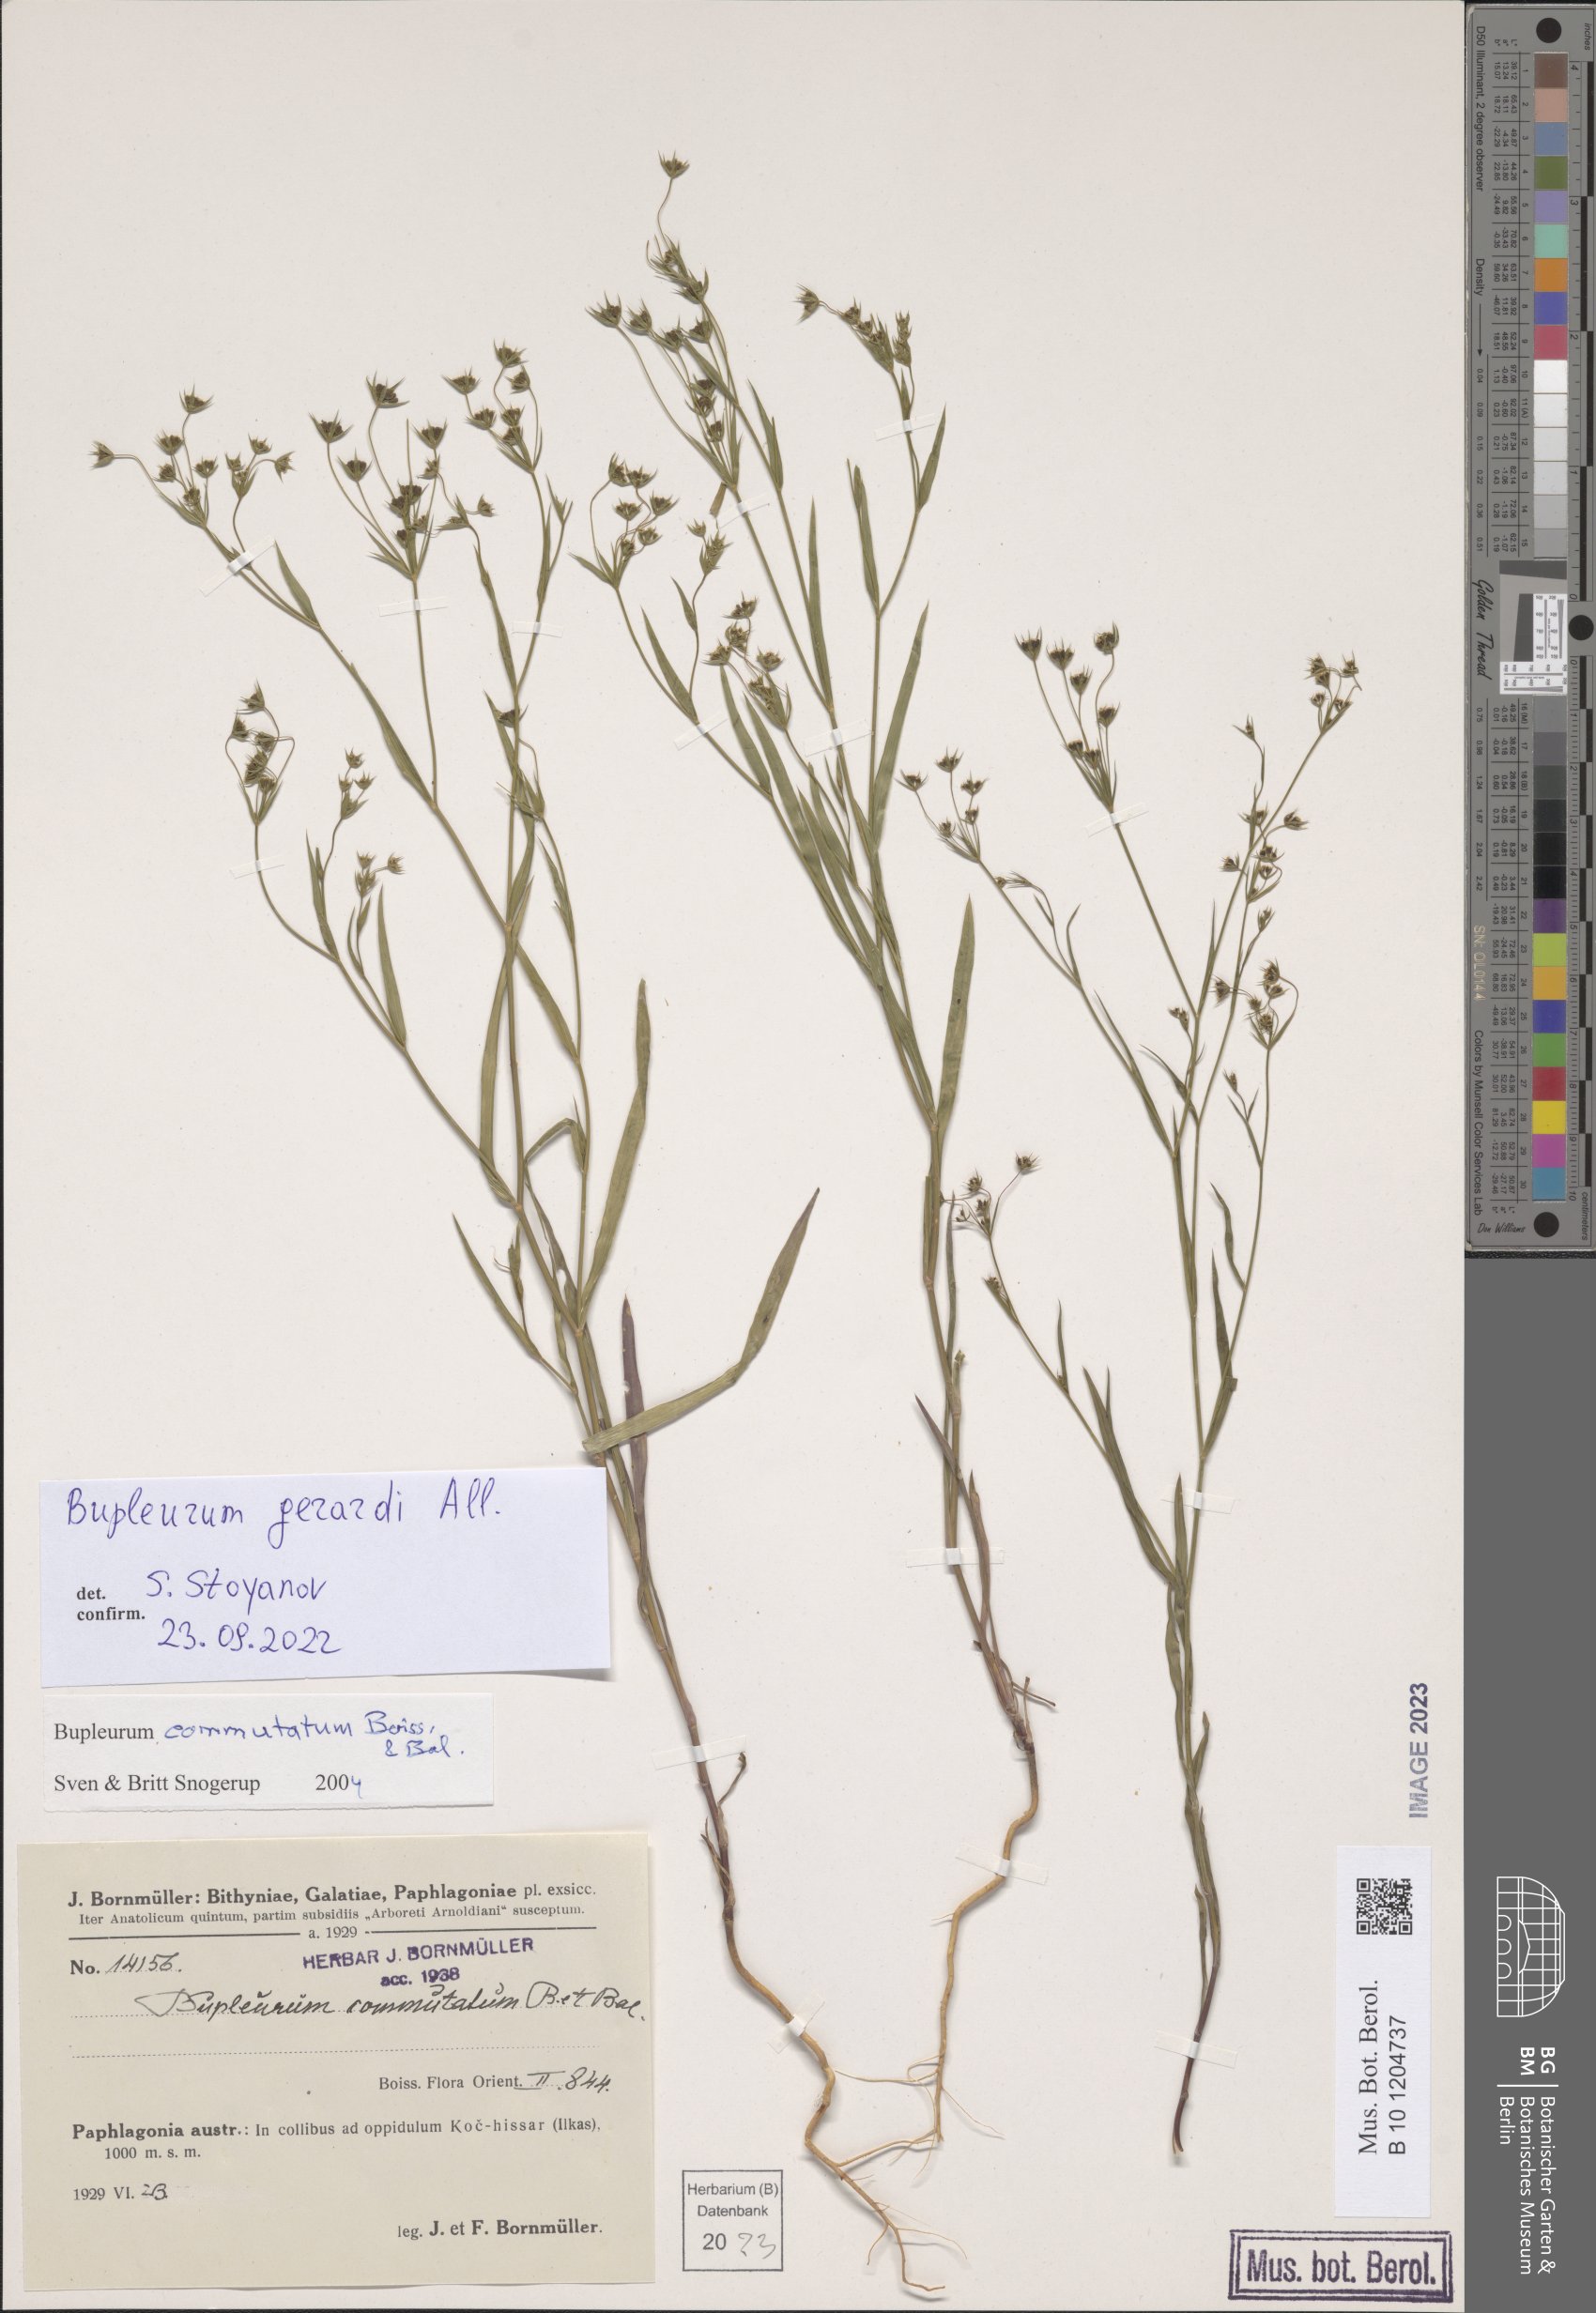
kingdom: Plantae
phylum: Tracheophyta
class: Magnoliopsida
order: Apiales
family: Apiaceae
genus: Bupleurum
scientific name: Bupleurum gerardi
